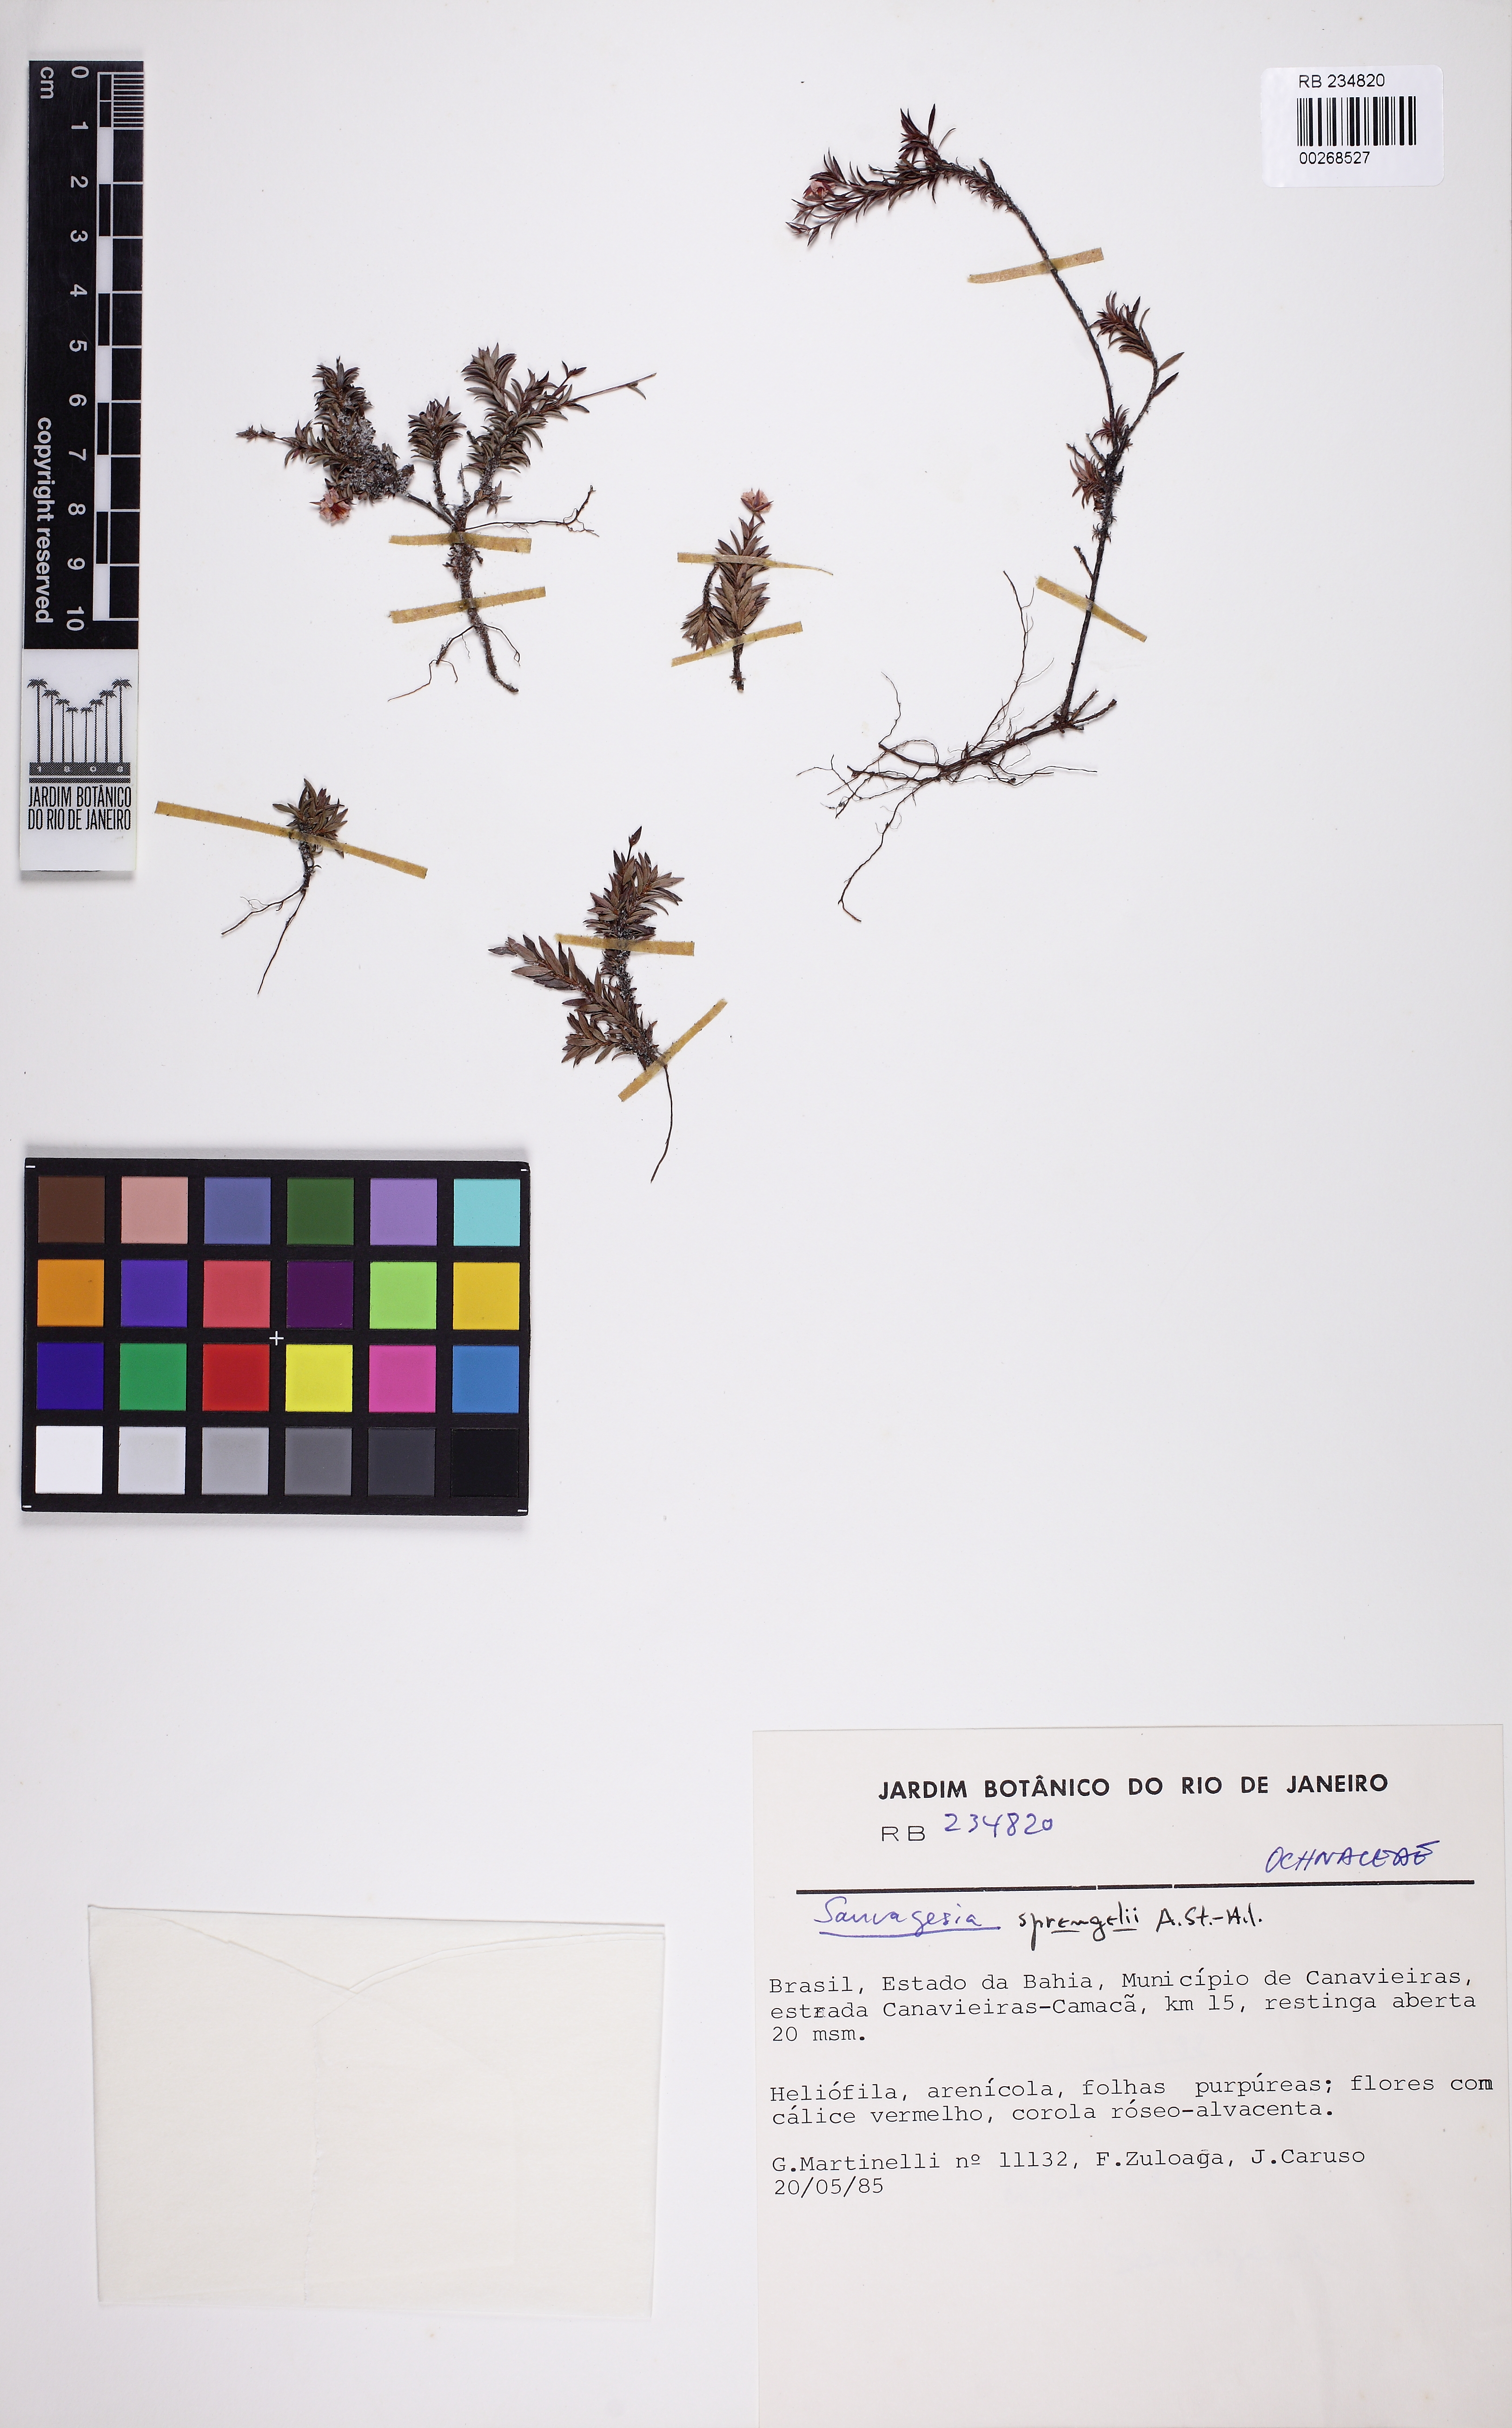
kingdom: Plantae
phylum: Tracheophyta
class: Magnoliopsida
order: Malpighiales
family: Ochnaceae
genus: Sauvagesia
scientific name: Sauvagesia sprengelii
